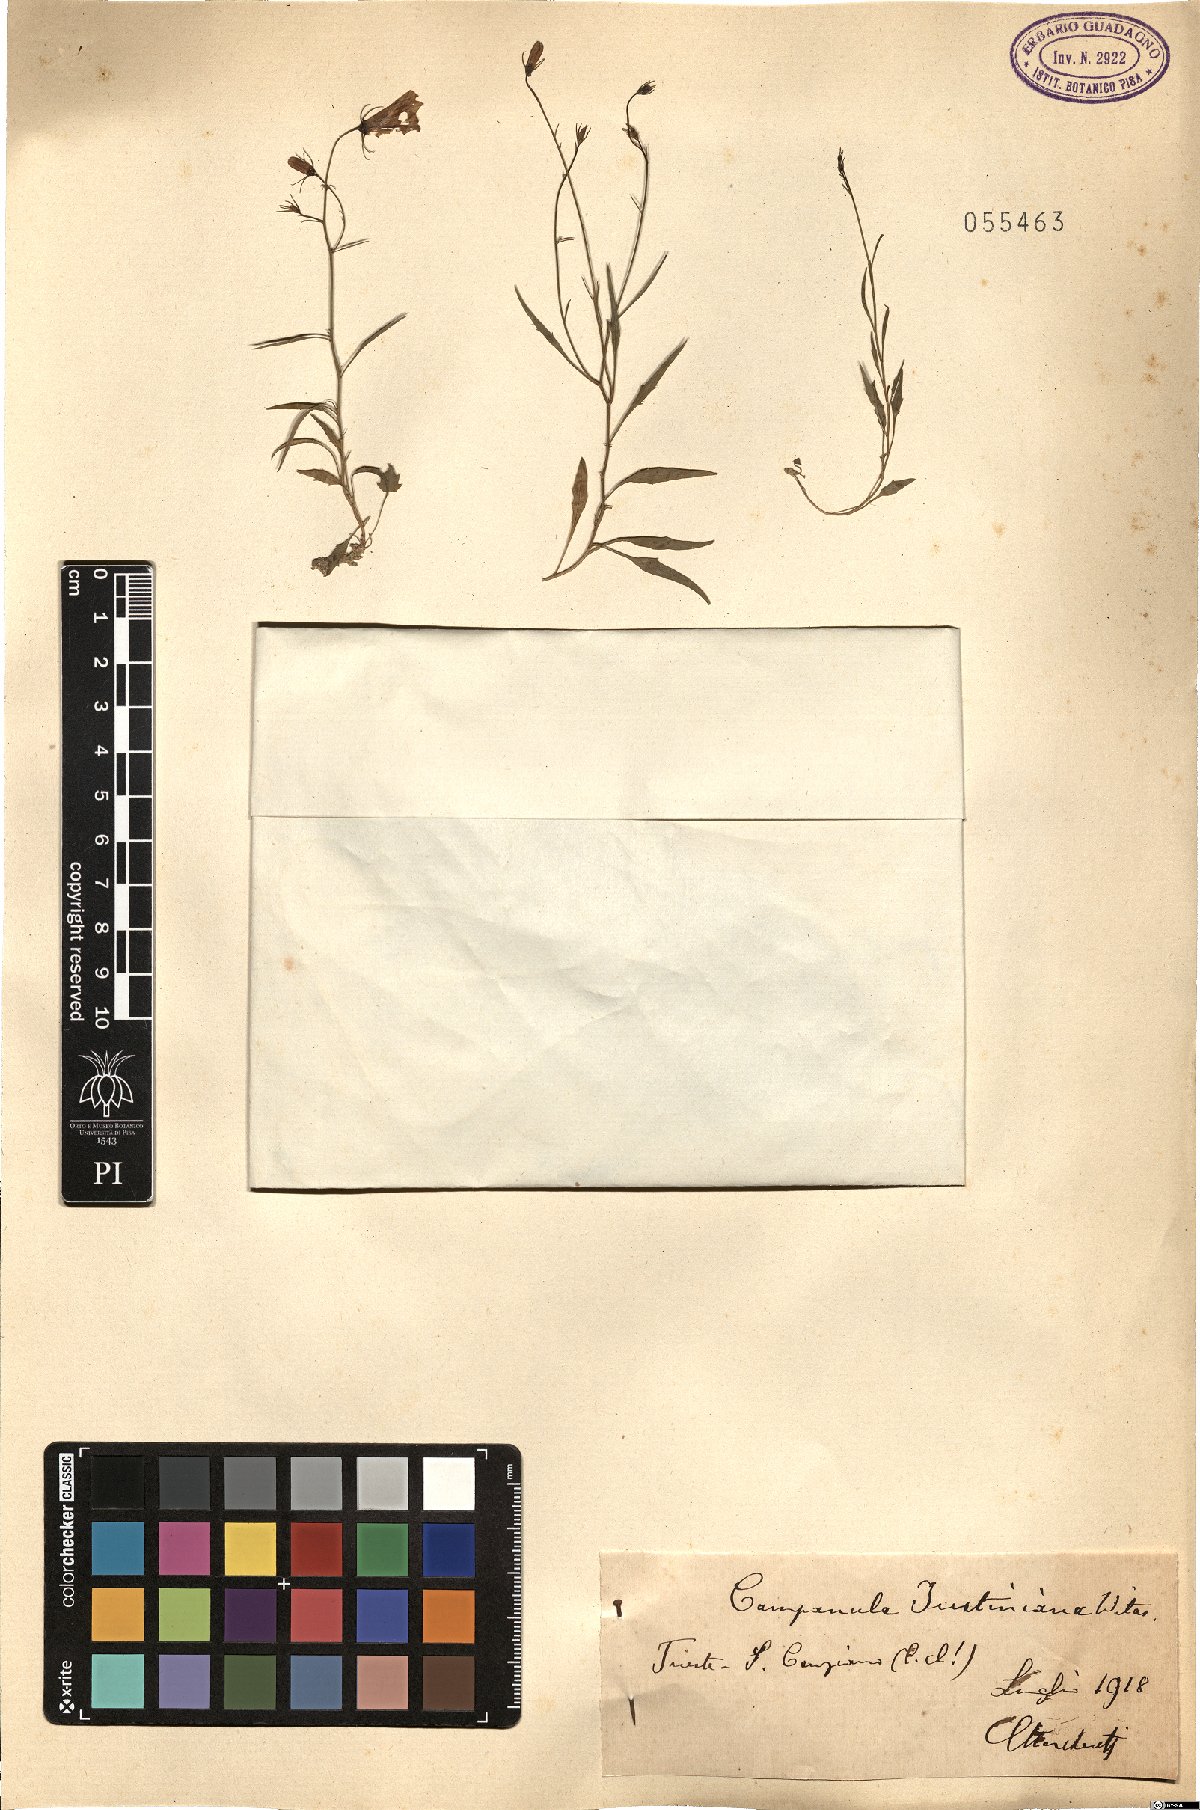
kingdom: Plantae
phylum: Tracheophyta
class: Magnoliopsida
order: Asterales
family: Campanulaceae
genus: Campanula
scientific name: Campanula justiniana
